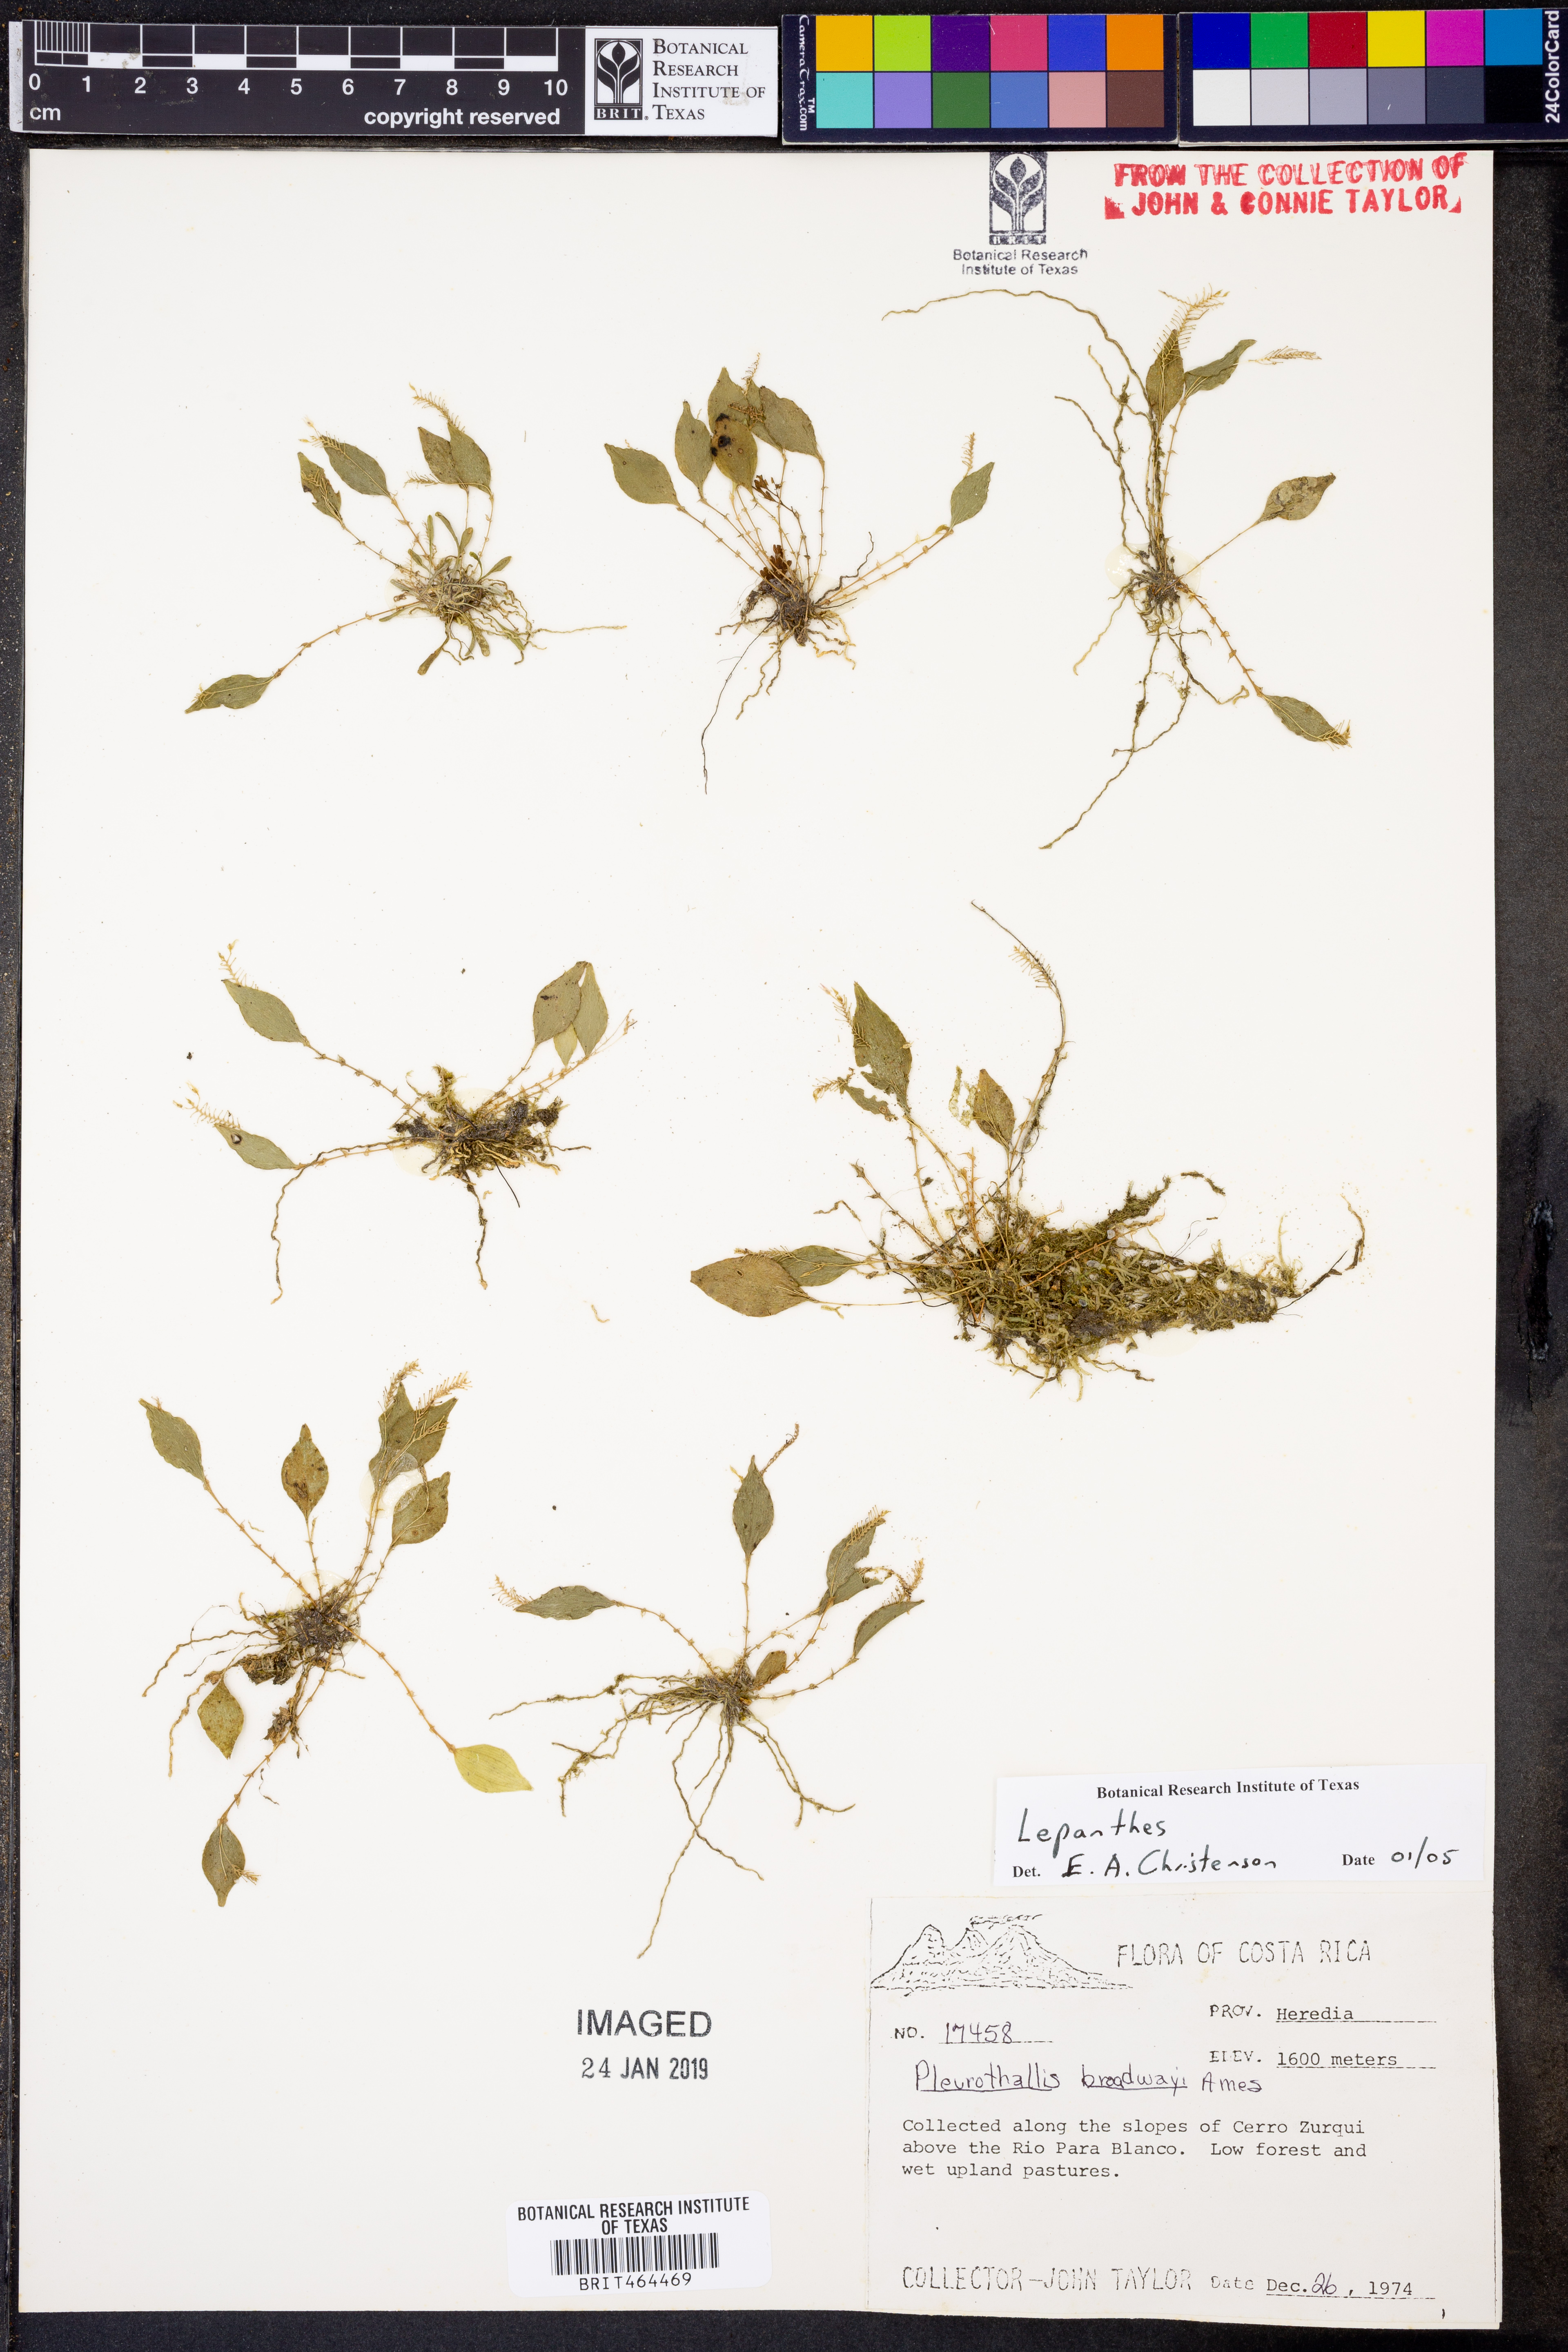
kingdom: Plantae
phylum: Tracheophyta
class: Liliopsida
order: Asparagales
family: Orchidaceae
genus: Lepanthes
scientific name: Lepanthes
